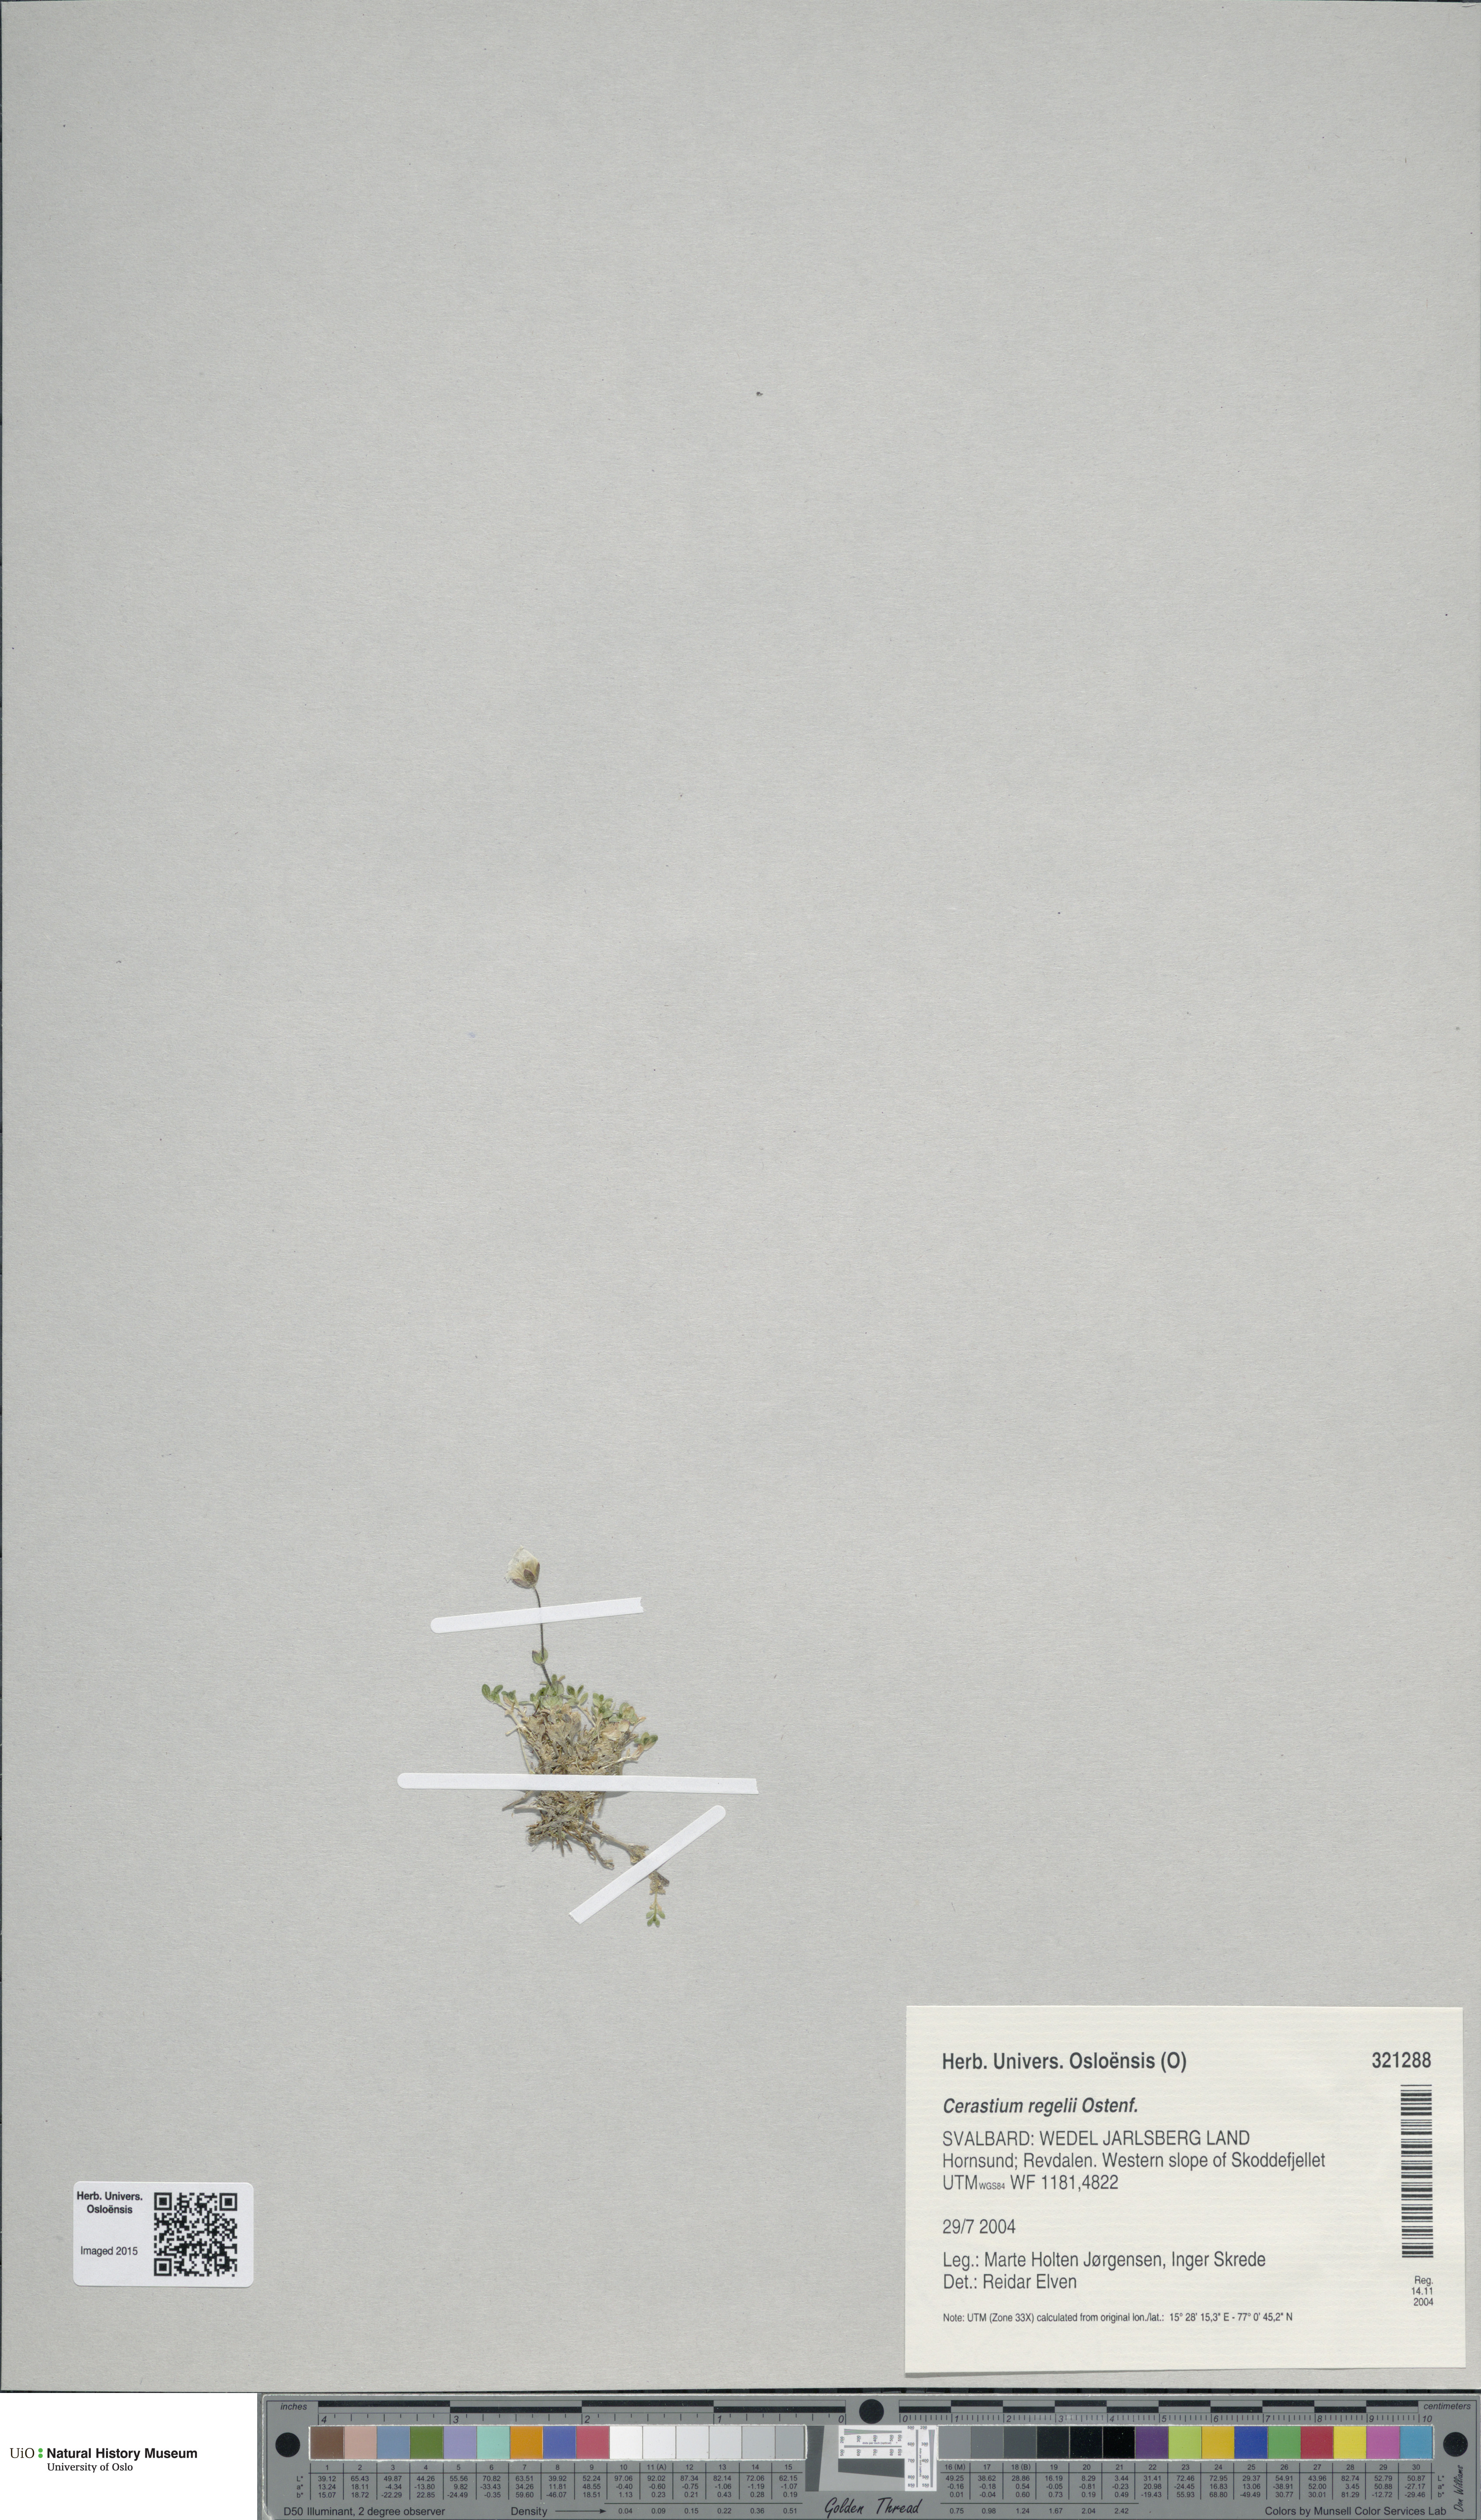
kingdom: Plantae
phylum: Tracheophyta
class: Magnoliopsida
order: Caryophyllales
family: Caryophyllaceae
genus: Cerastium
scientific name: Cerastium regelii
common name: Regel's chickweed
